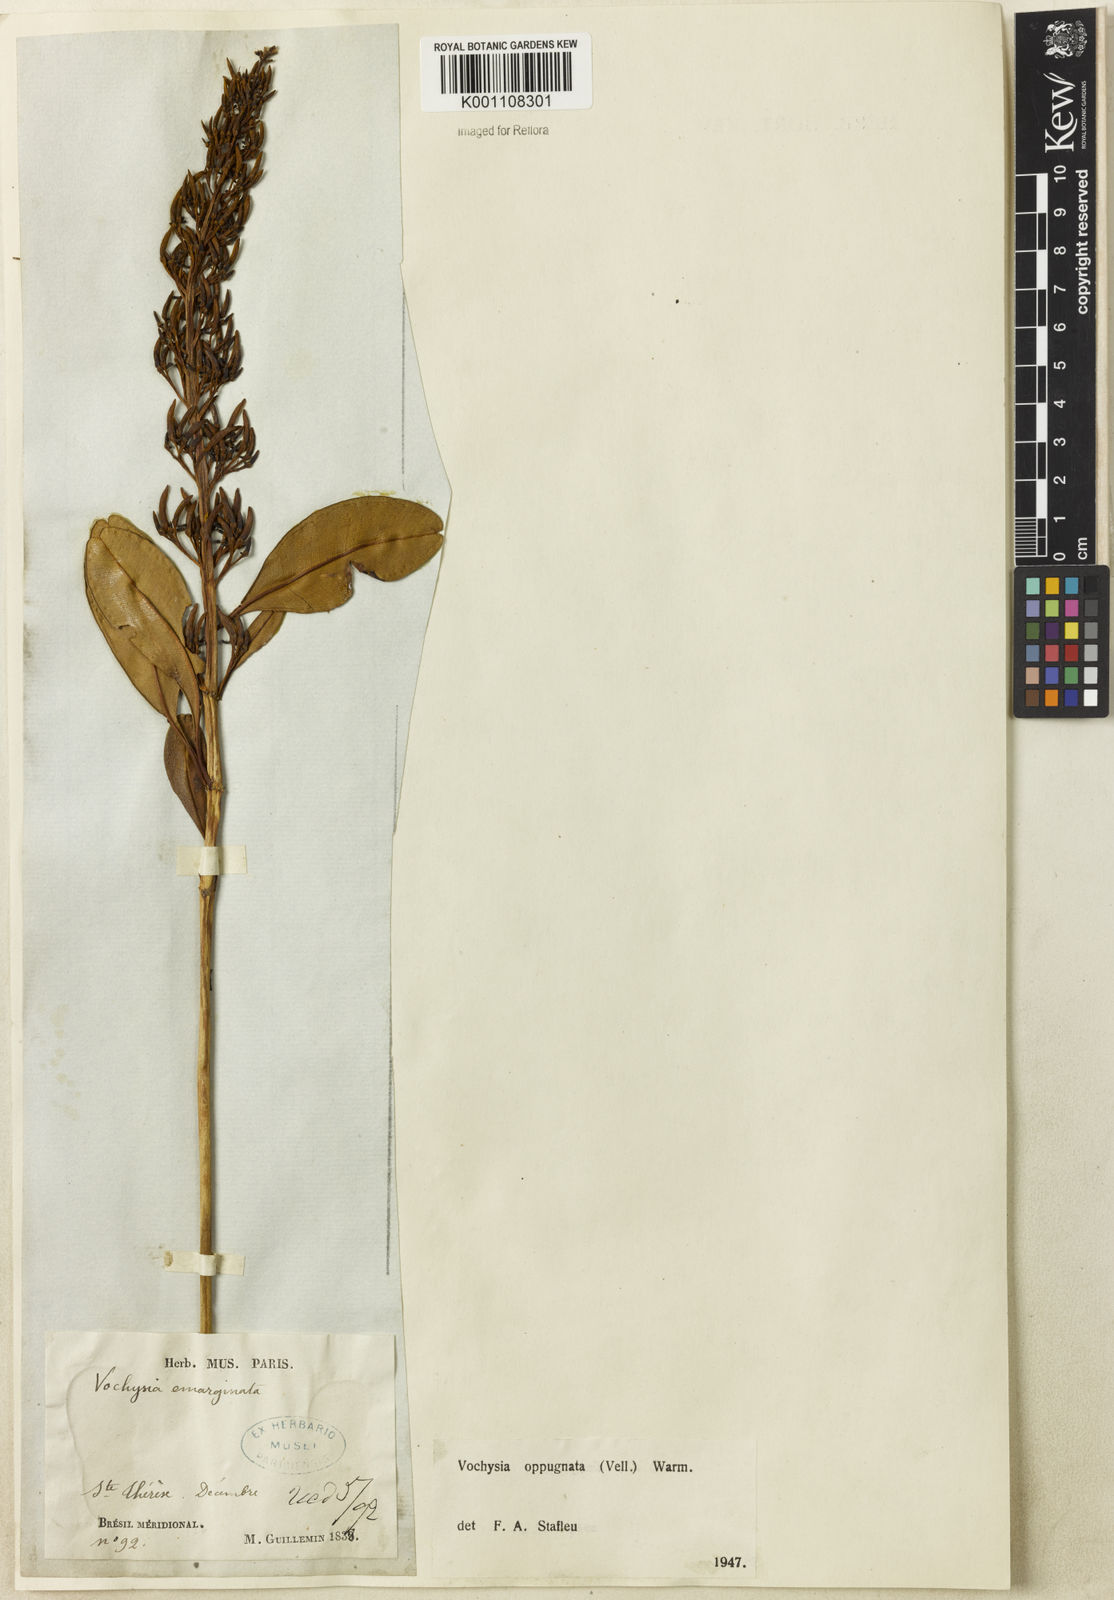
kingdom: Plantae
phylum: Tracheophyta
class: Magnoliopsida
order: Myrtales
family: Vochysiaceae
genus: Vochysia
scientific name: Vochysia oppugnata
